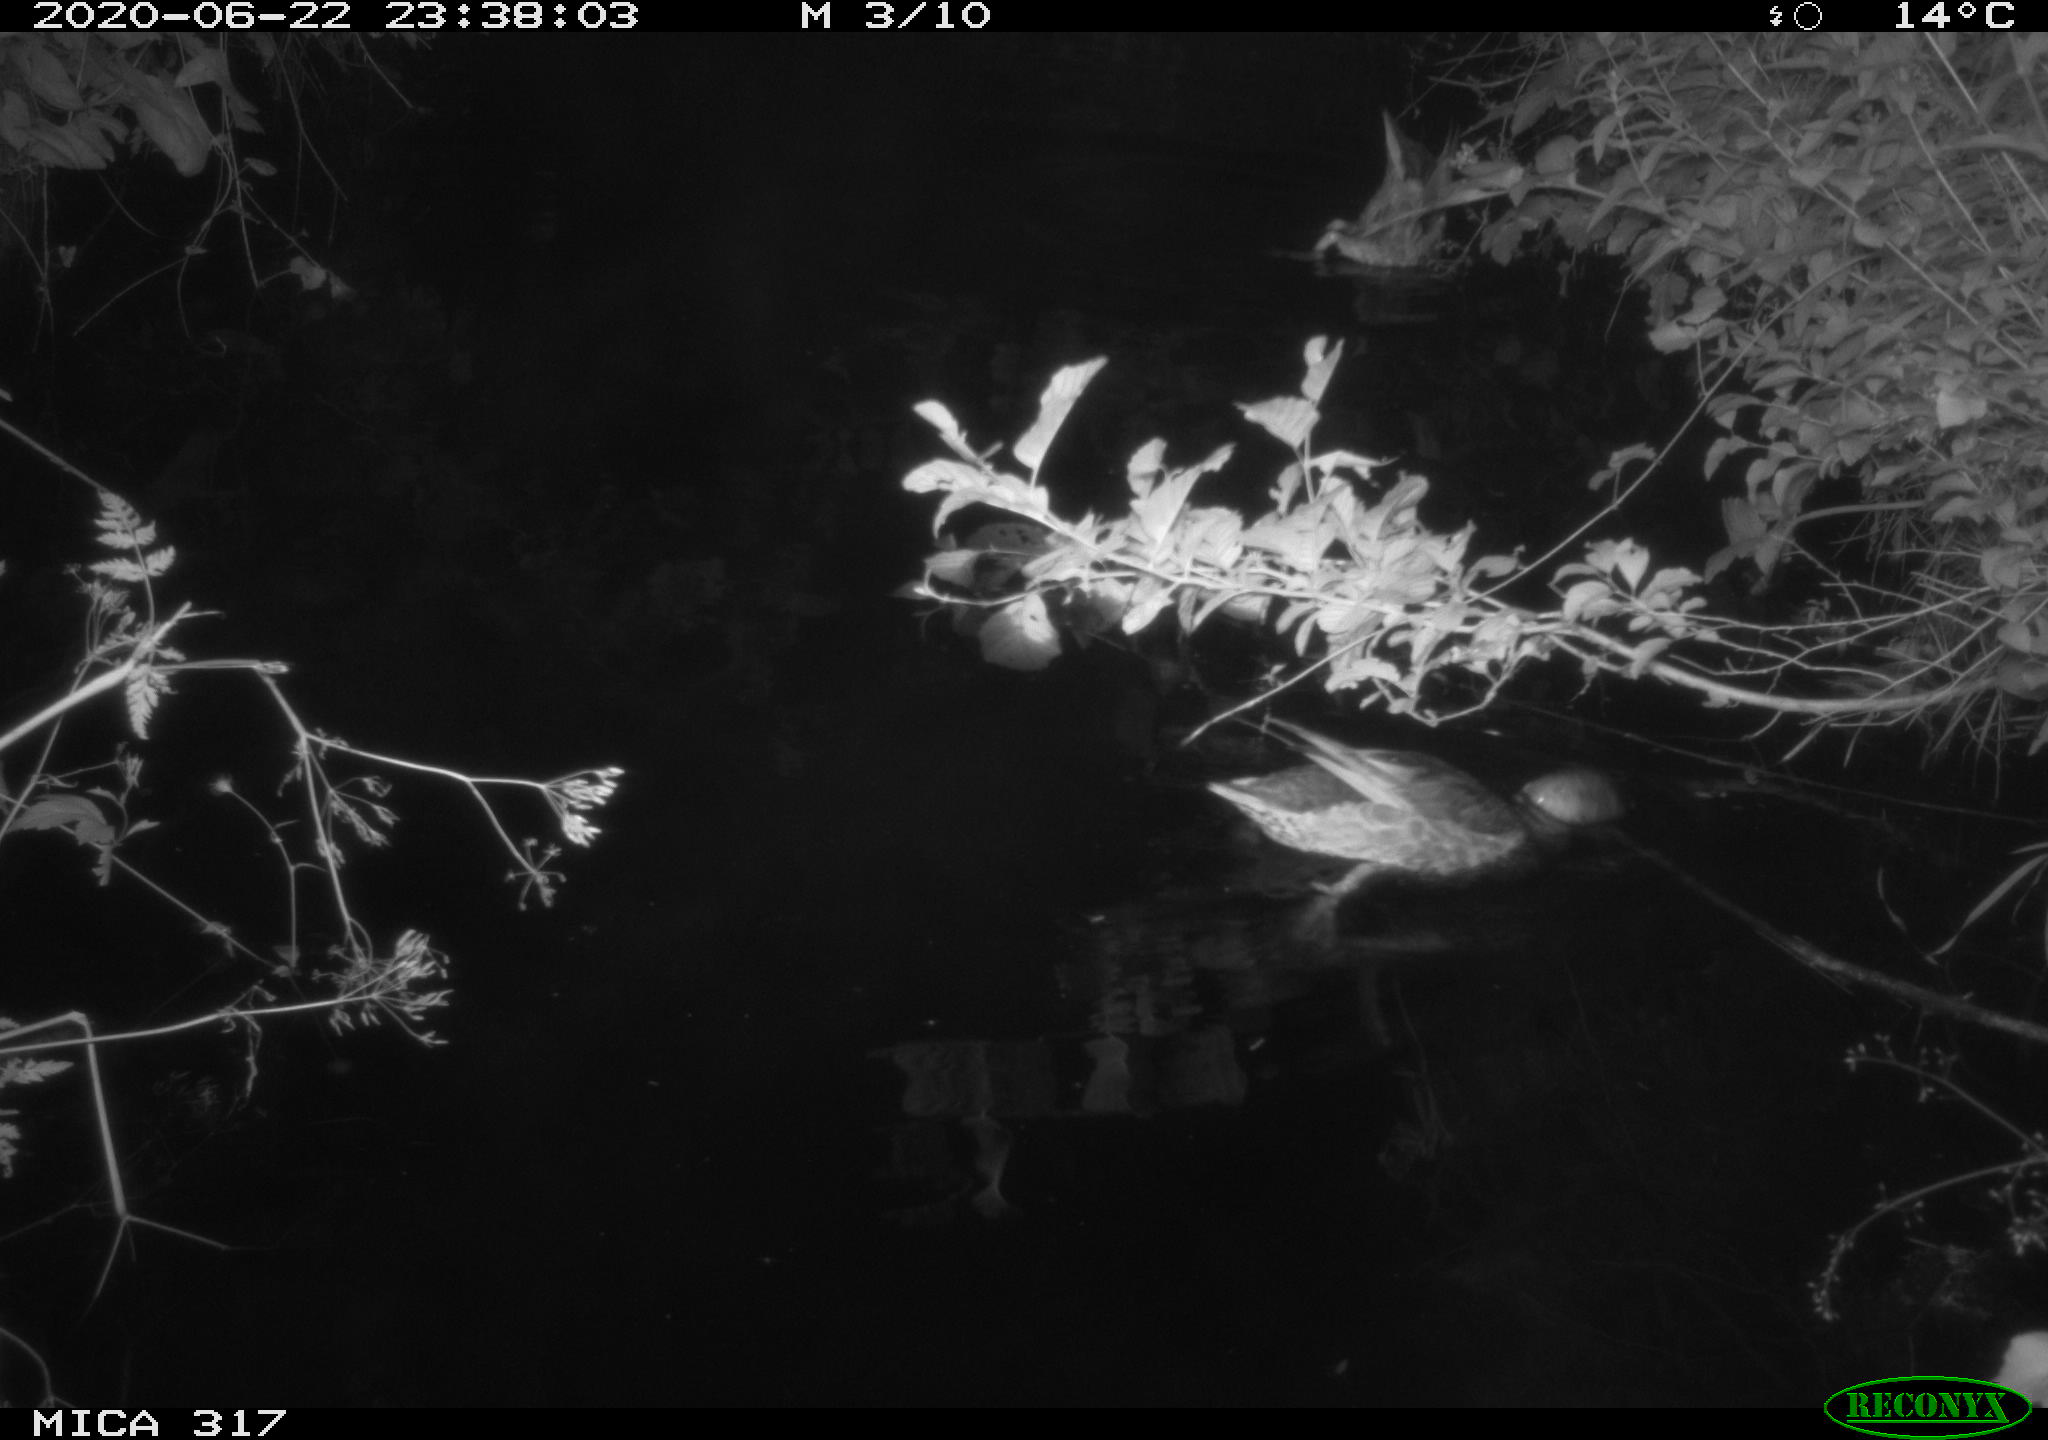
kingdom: Animalia
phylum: Chordata
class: Aves
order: Anseriformes
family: Anatidae
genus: Anas
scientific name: Anas platyrhynchos
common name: Mallard
